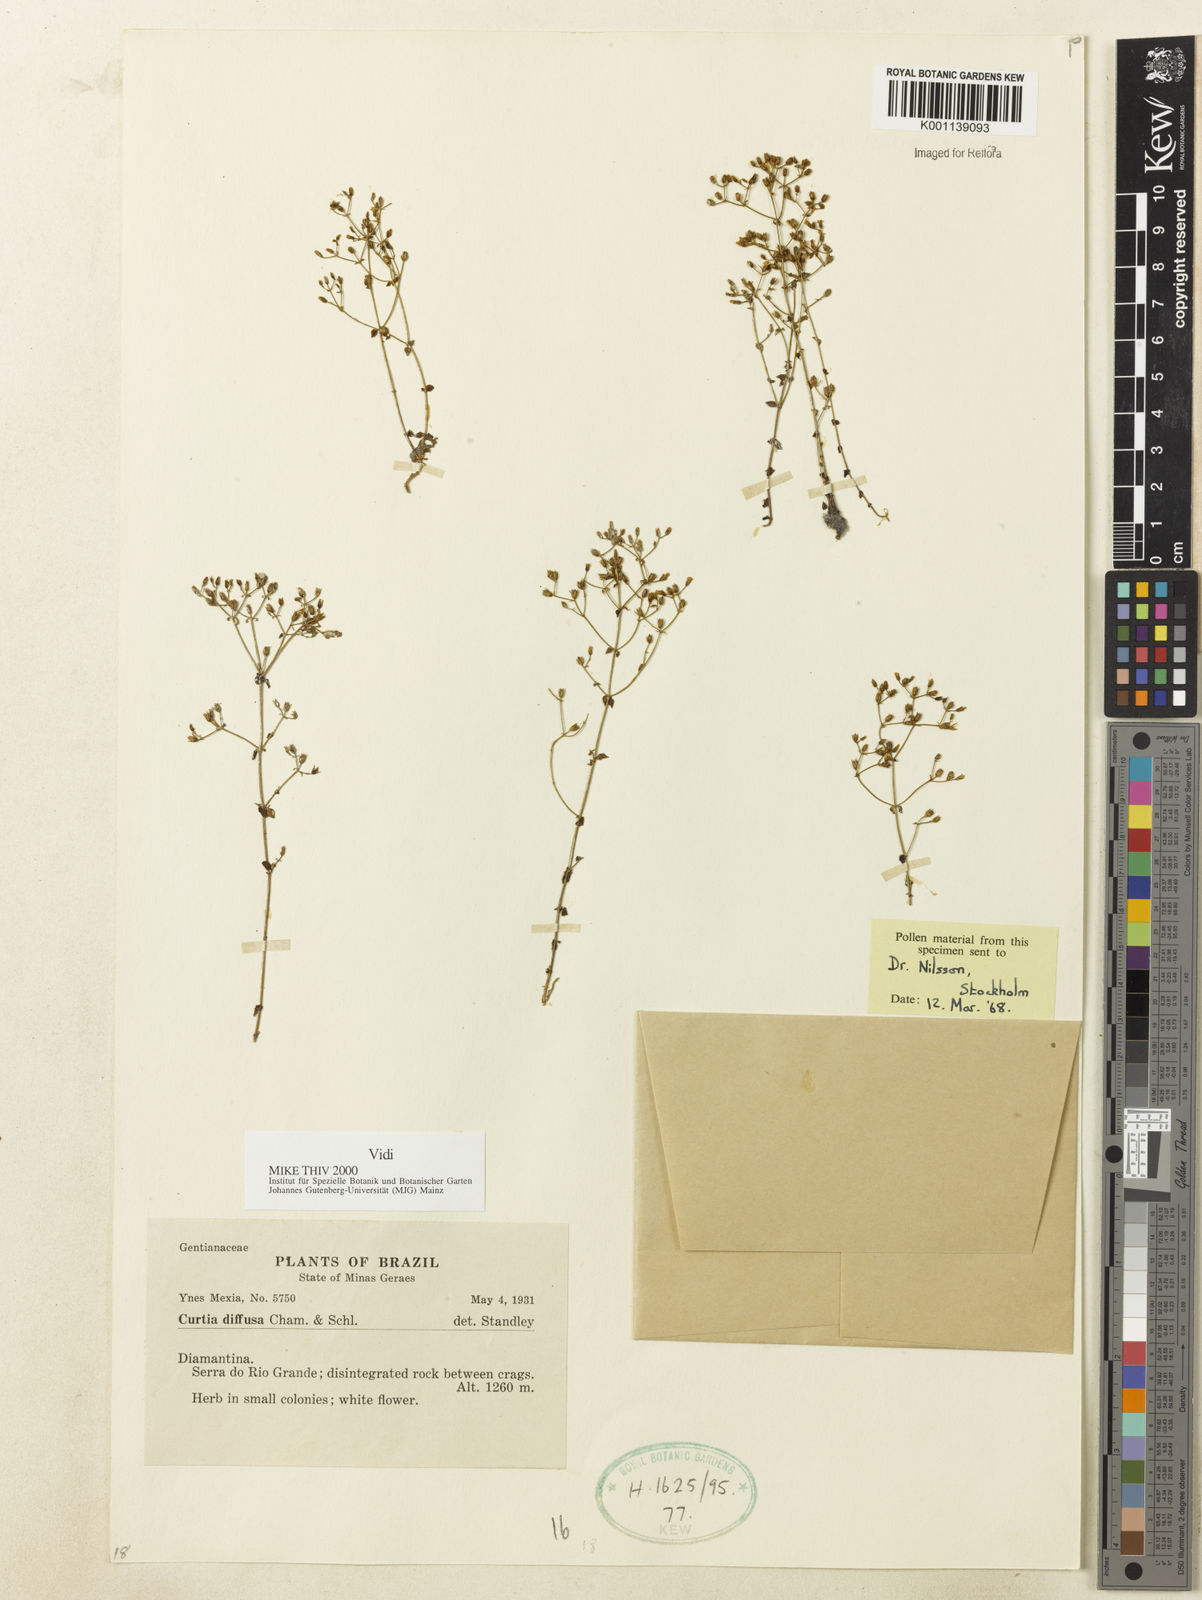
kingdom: Plantae
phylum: Tracheophyta
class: Magnoliopsida
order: Gentianales
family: Gentianaceae
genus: Curtia
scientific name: Curtia diffusa
